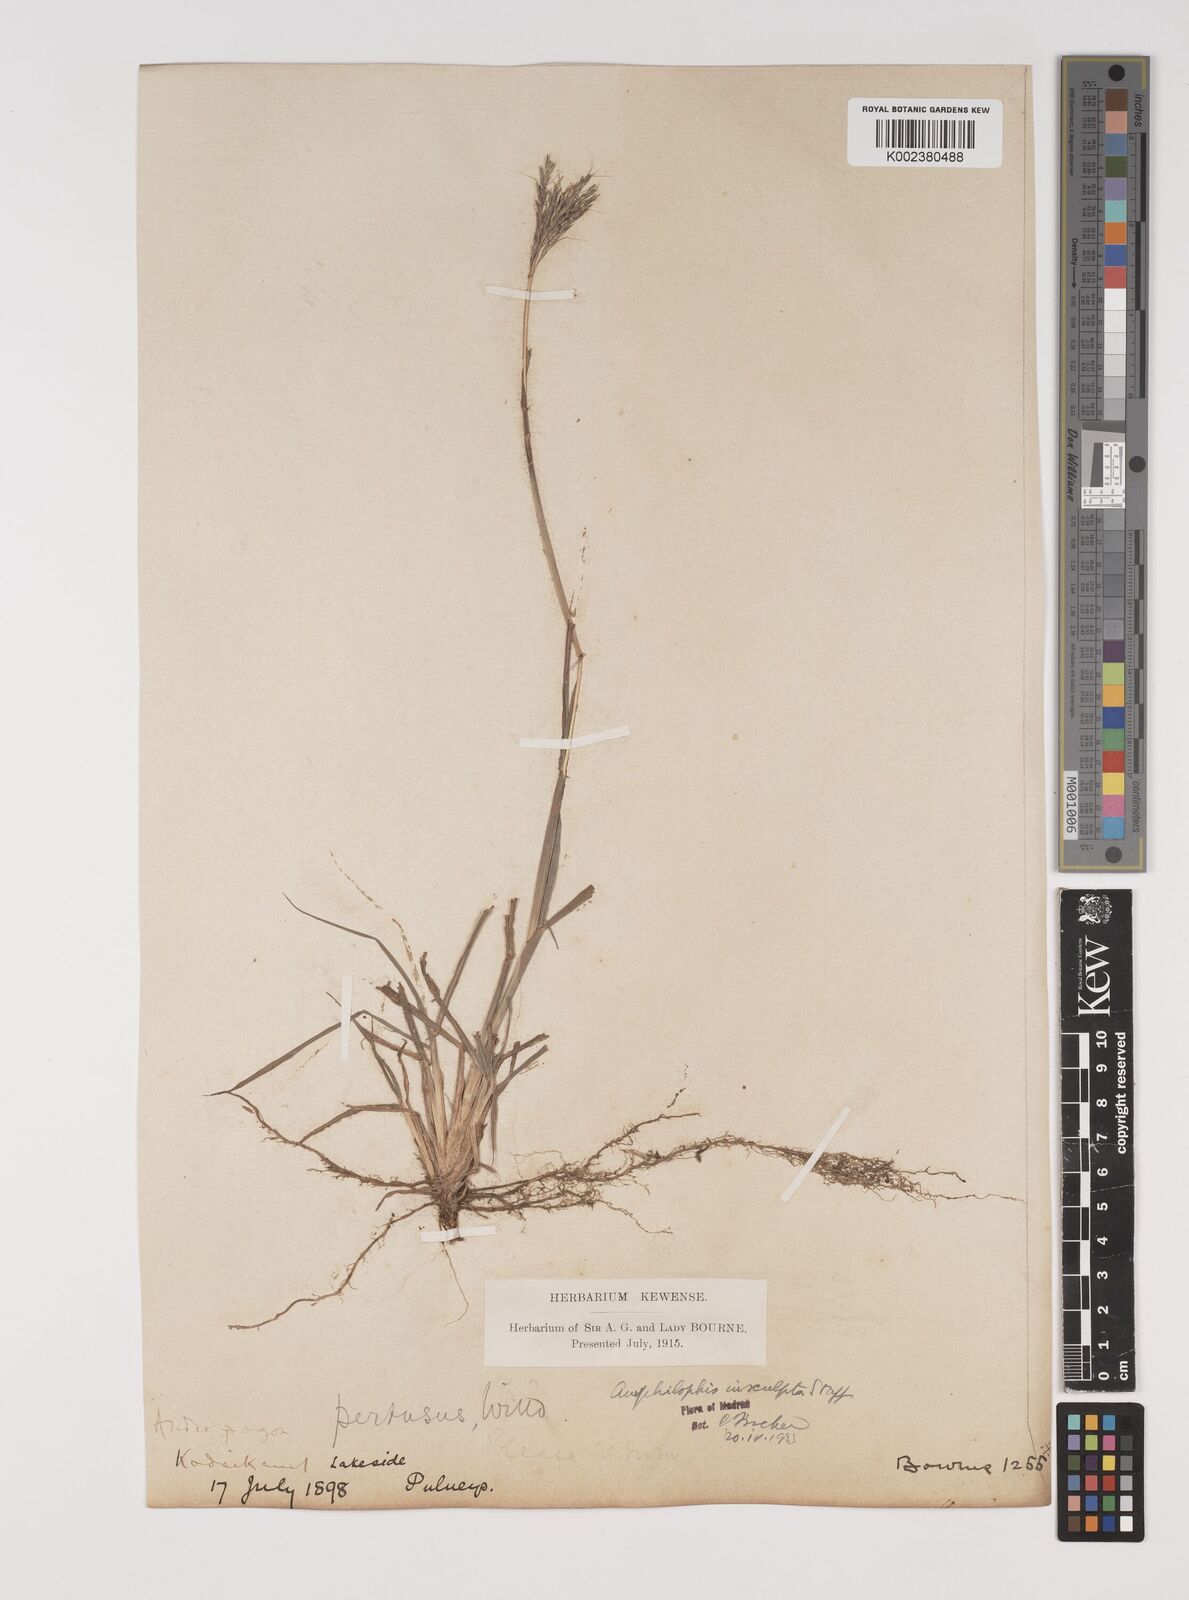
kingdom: Plantae
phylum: Tracheophyta
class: Liliopsida
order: Poales
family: Poaceae
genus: Bothriochloa
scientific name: Bothriochloa insculpta
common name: Creeping-bluegrass
